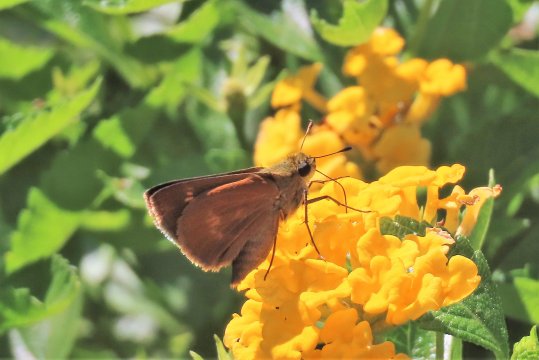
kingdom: Animalia
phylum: Arthropoda
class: Insecta
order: Lepidoptera
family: Hesperiidae
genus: Wallengrenia
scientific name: Wallengrenia otho
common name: Southern Broken-Dash
